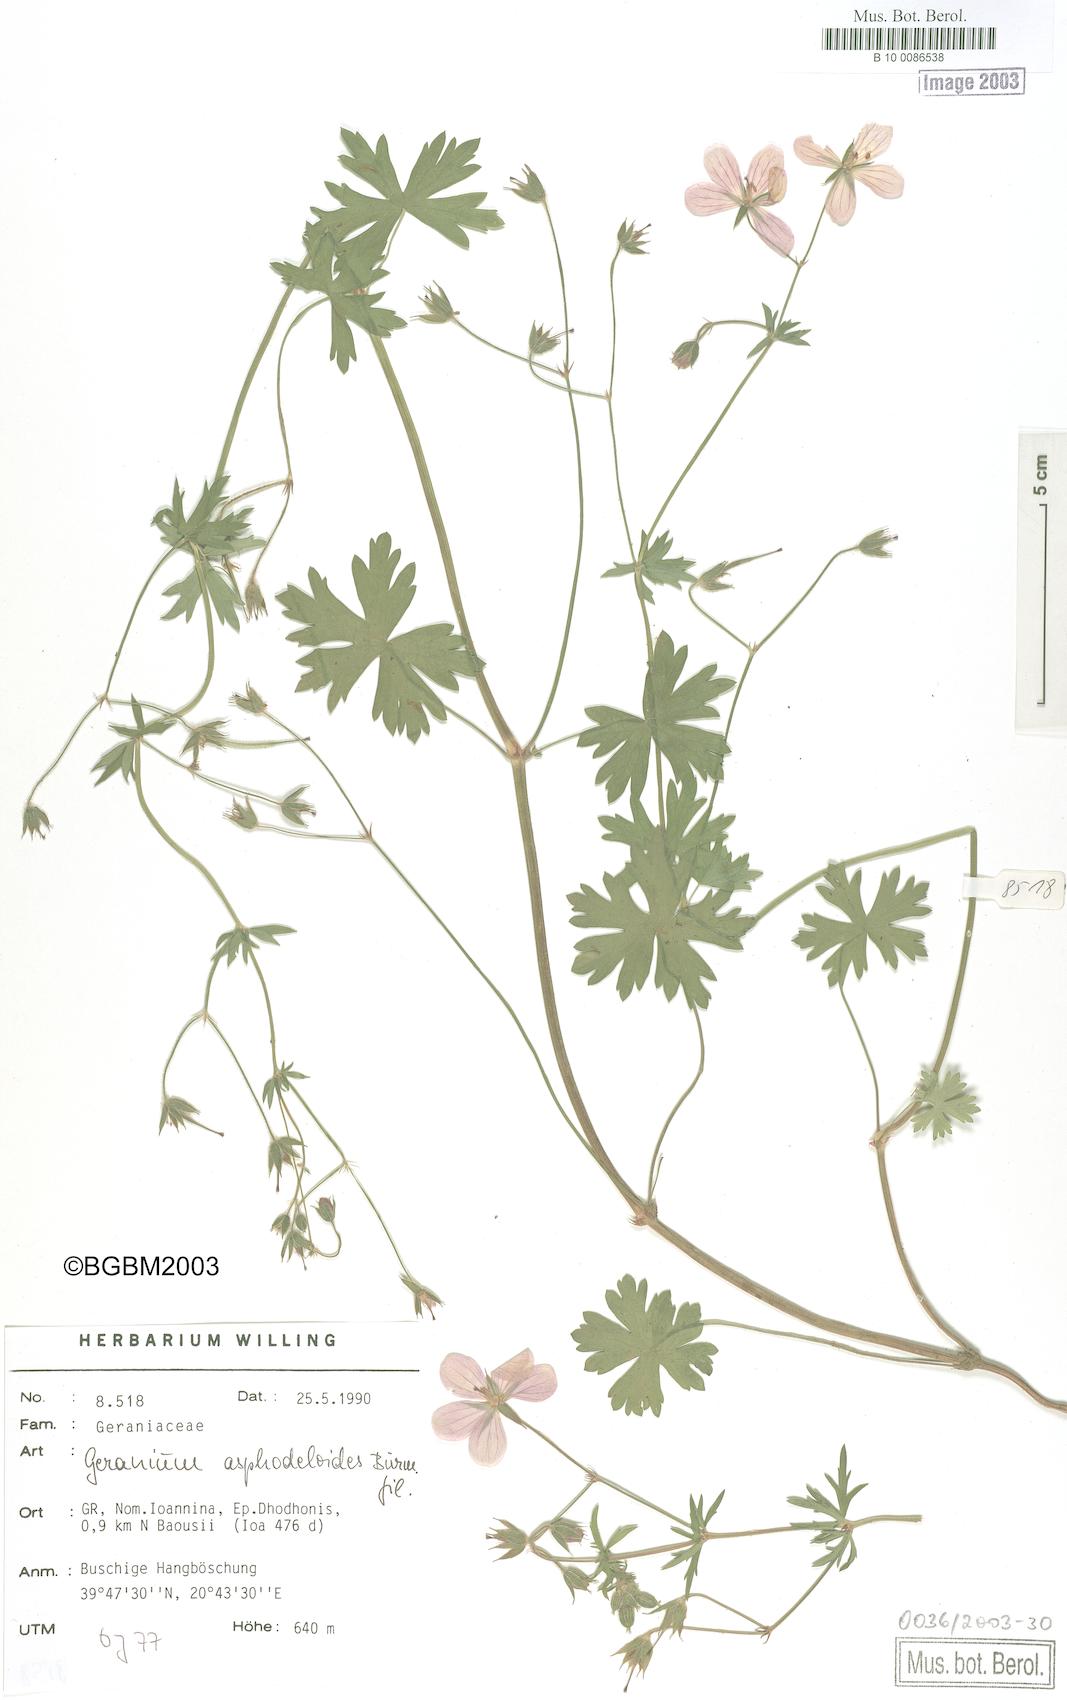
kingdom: Plantae
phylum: Tracheophyta
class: Magnoliopsida
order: Geraniales
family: Geraniaceae
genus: Geranium
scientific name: Geranium asphodeloides
